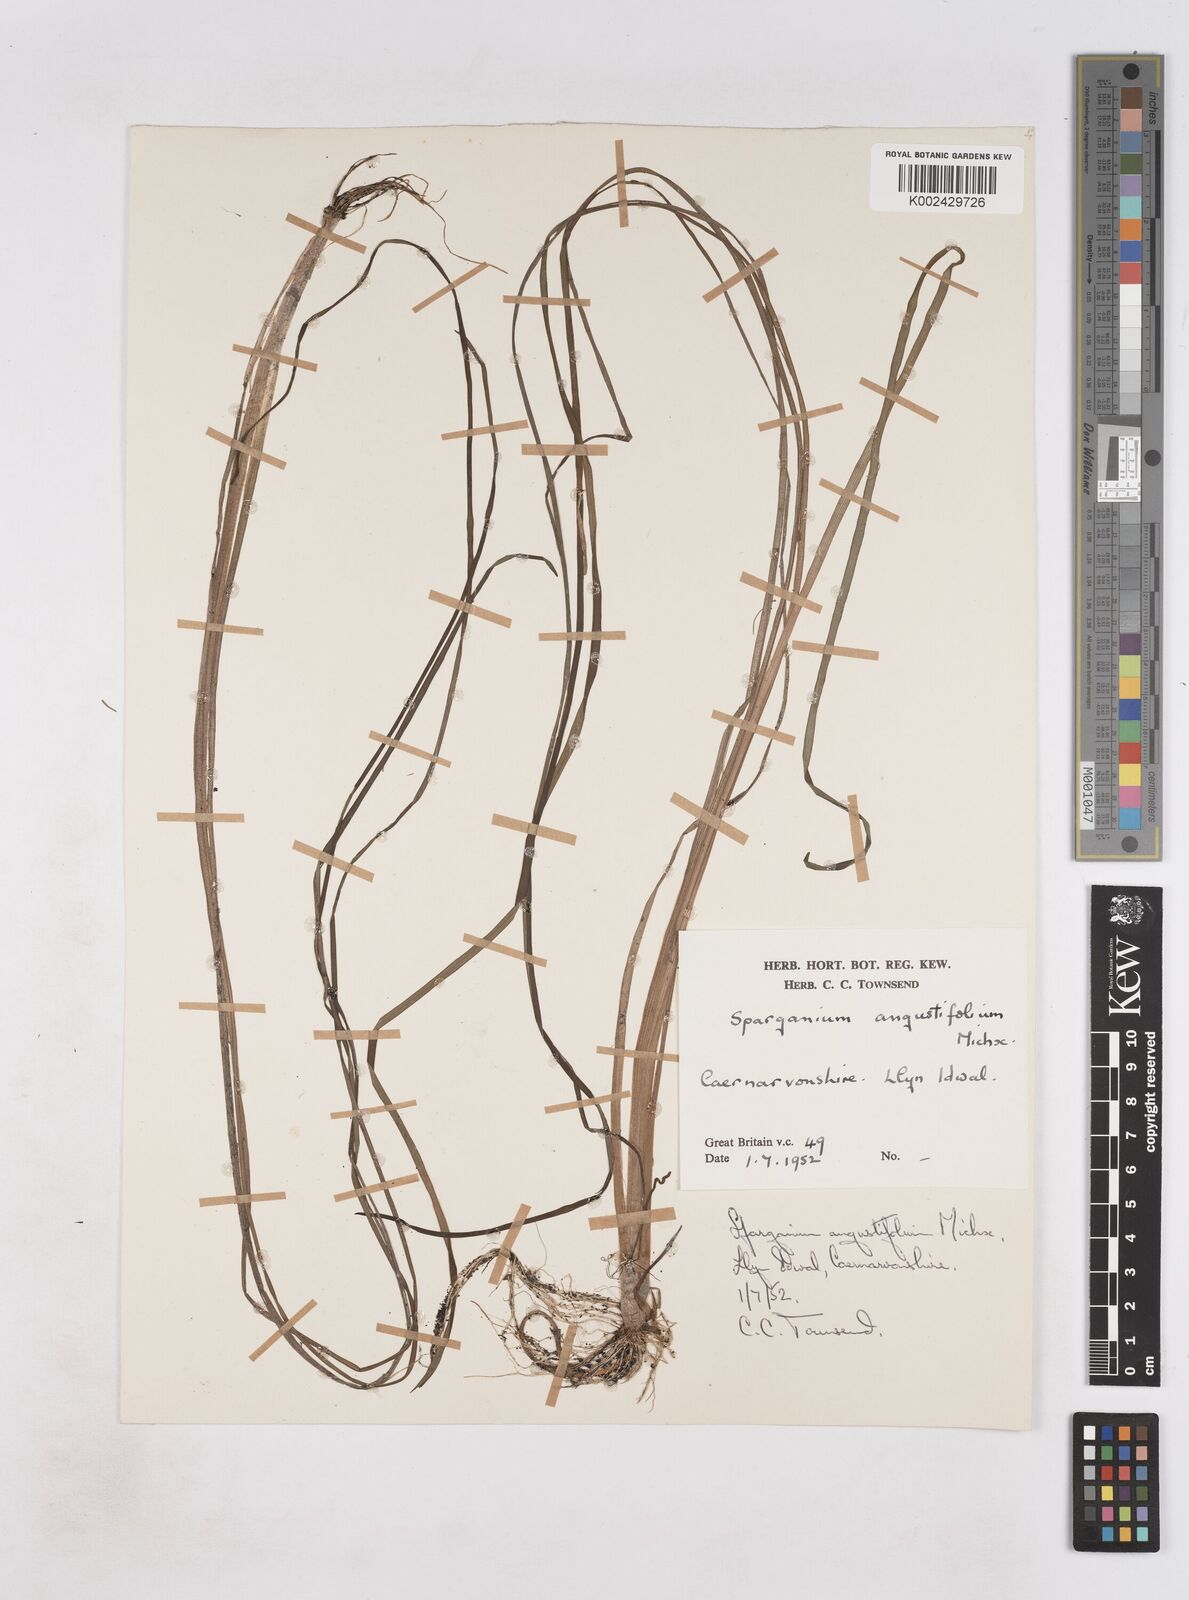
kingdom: Plantae
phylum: Tracheophyta
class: Liliopsida
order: Poales
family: Typhaceae
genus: Sparganium
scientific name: Sparganium angustifolium
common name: Floating bur-reed
